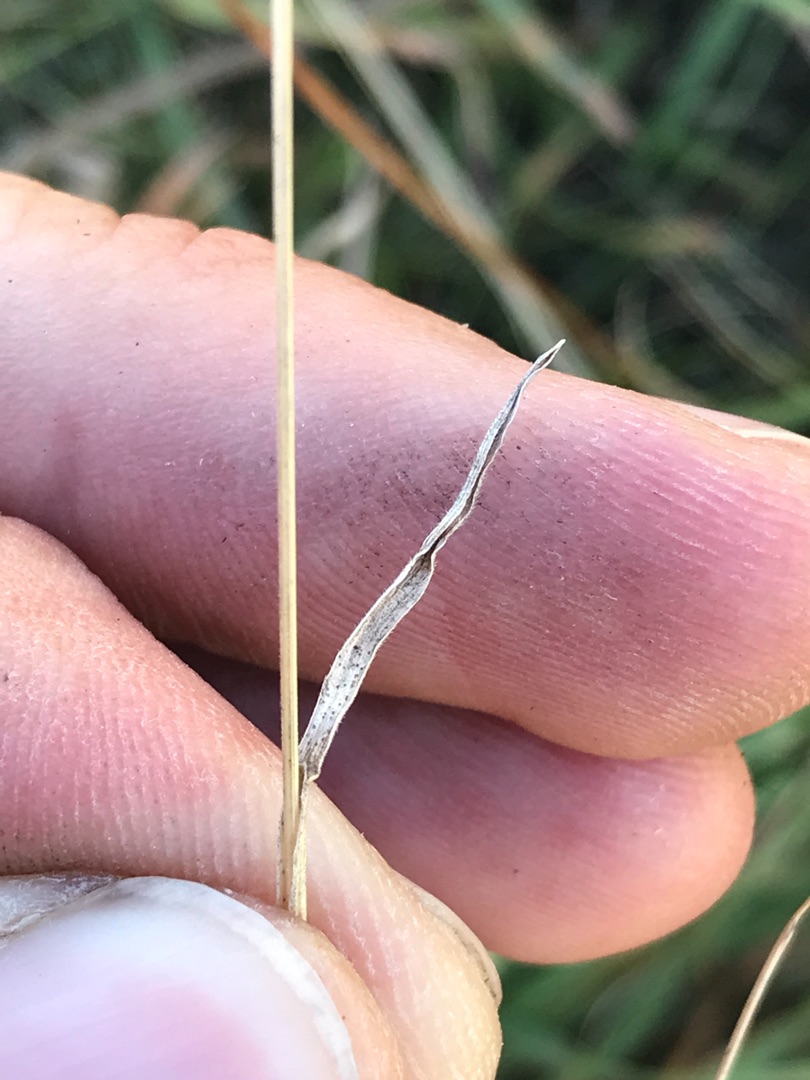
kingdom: Plantae
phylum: Tracheophyta
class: Liliopsida
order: Poales
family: Poaceae
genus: Bromus
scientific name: Bromus hordeaceus
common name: Blød hejre
